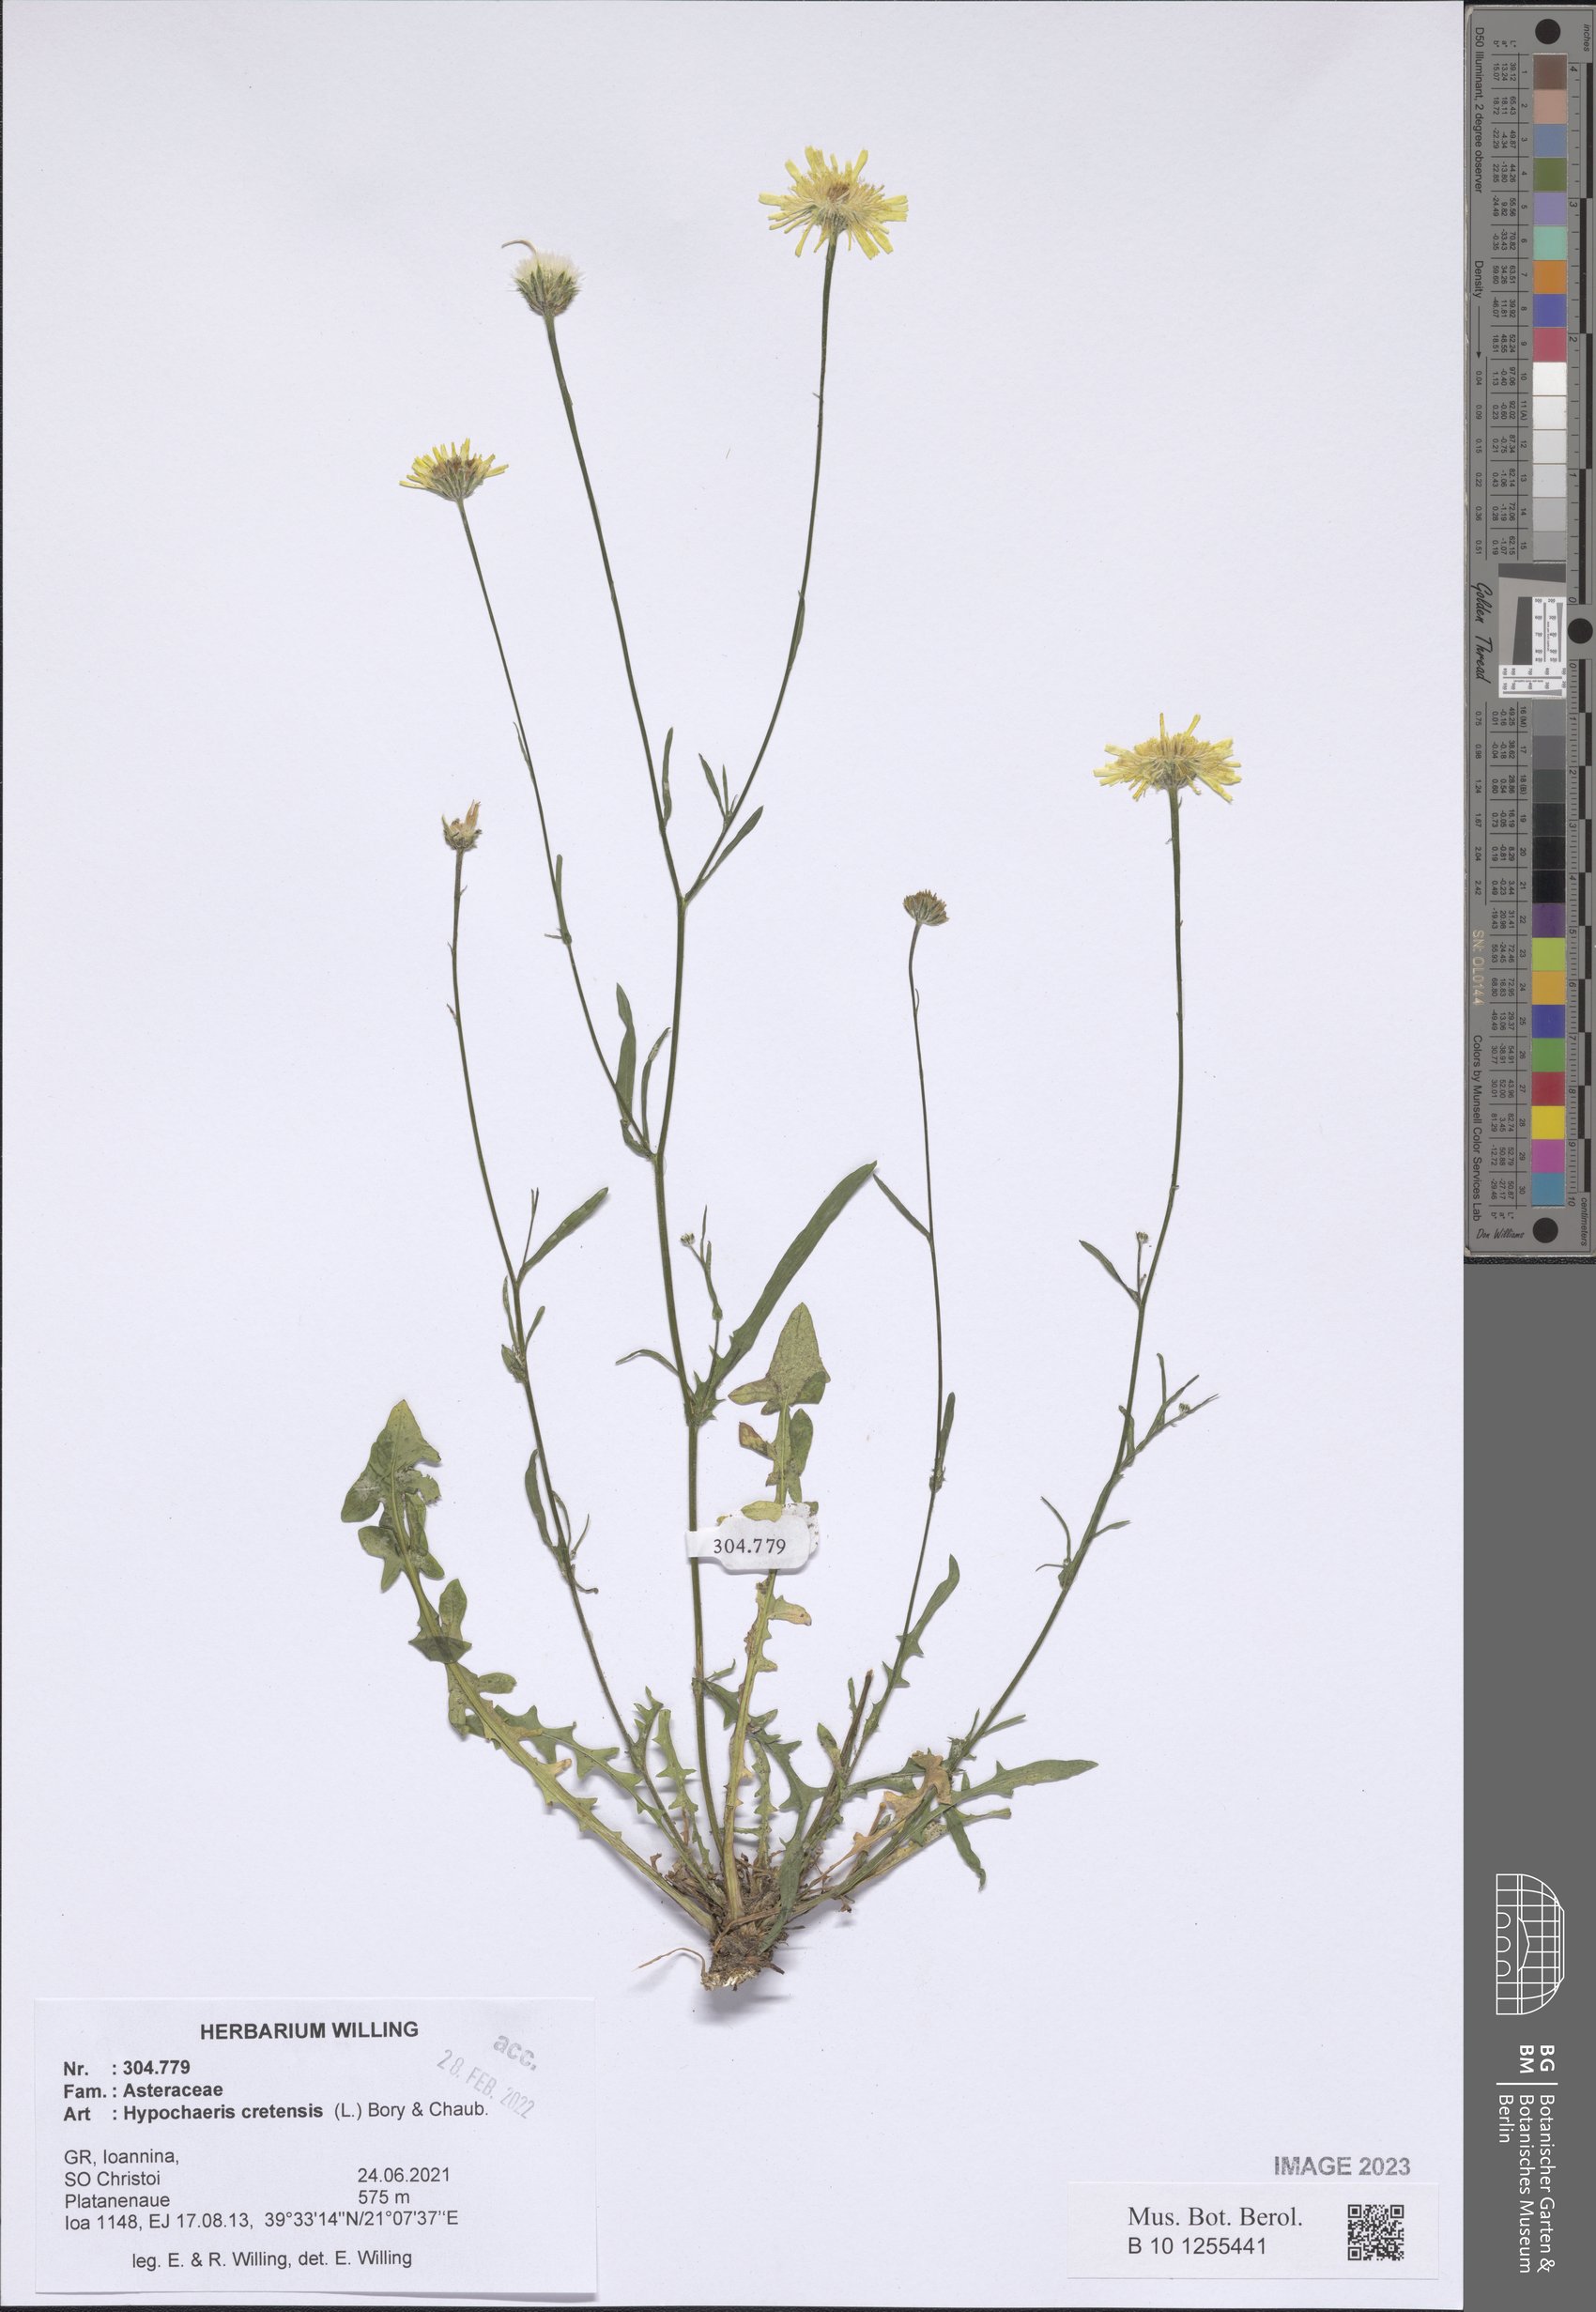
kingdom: Plantae
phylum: Tracheophyta
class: Magnoliopsida
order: Asterales
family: Asteraceae
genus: Hypochaeris
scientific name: Hypochaeris cretensis
